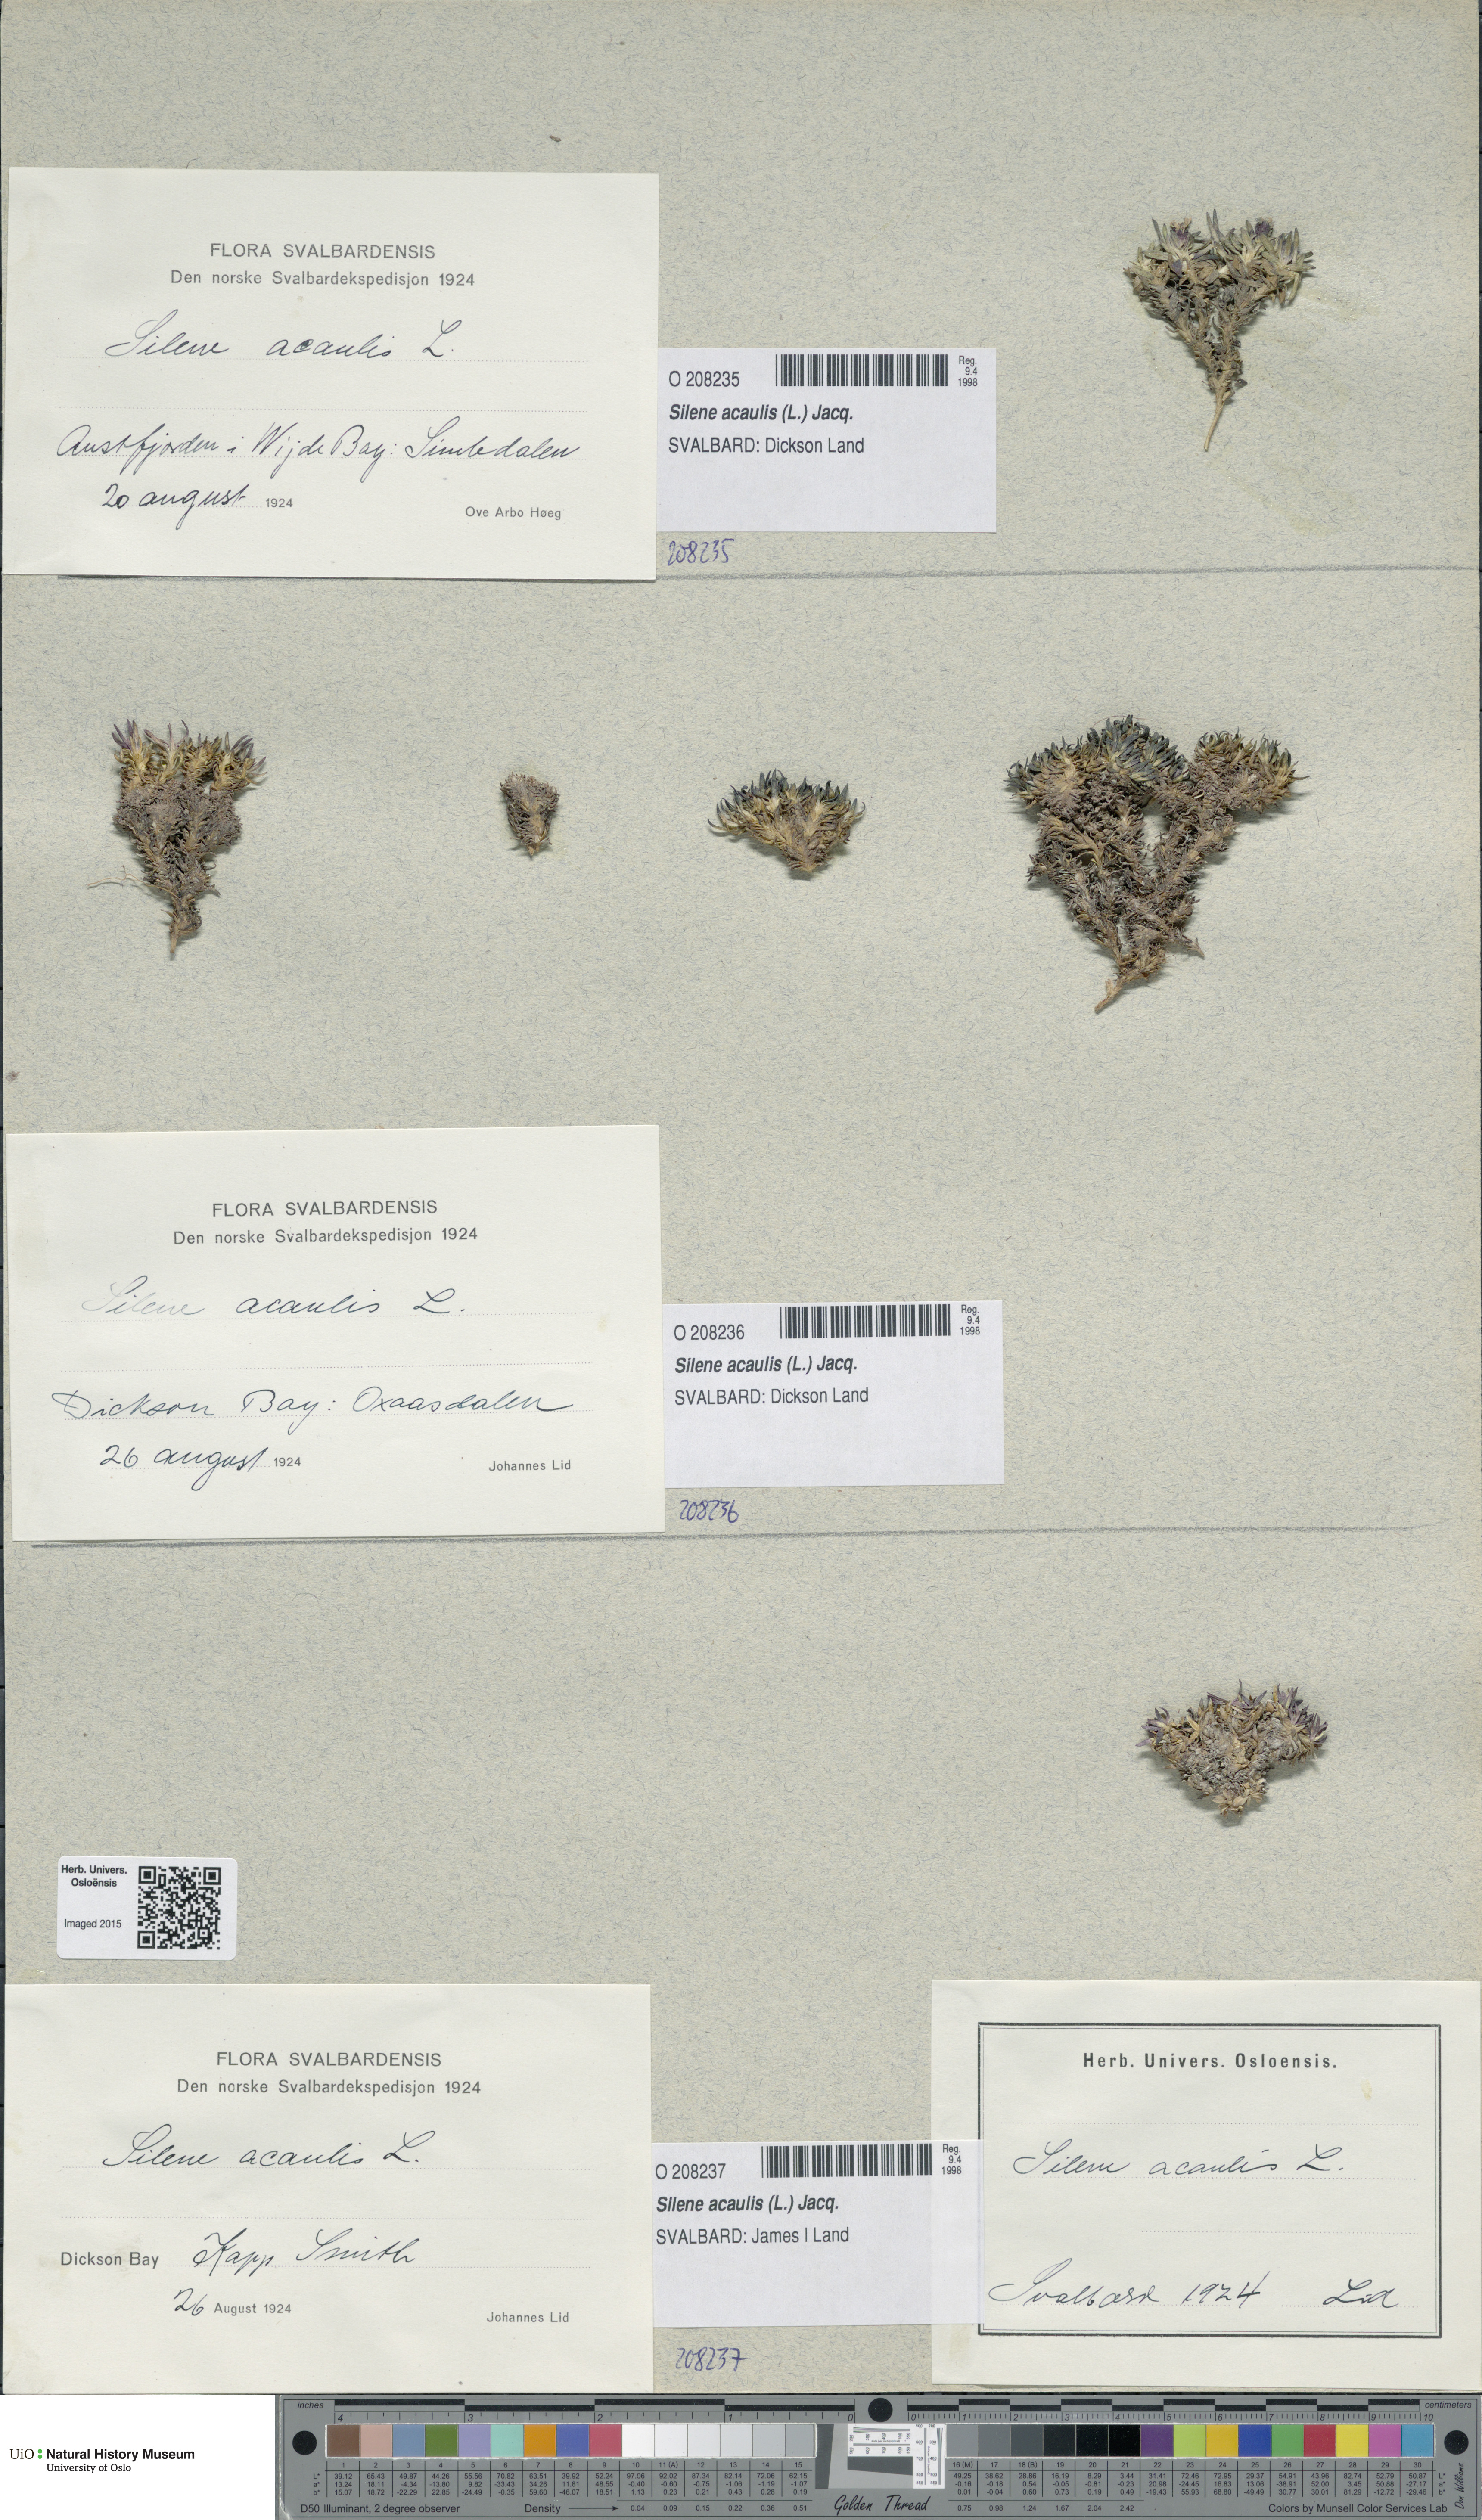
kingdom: Plantae
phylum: Tracheophyta
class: Magnoliopsida
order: Caryophyllales
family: Caryophyllaceae
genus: Silene
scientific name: Silene acaulis
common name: Moss campion
